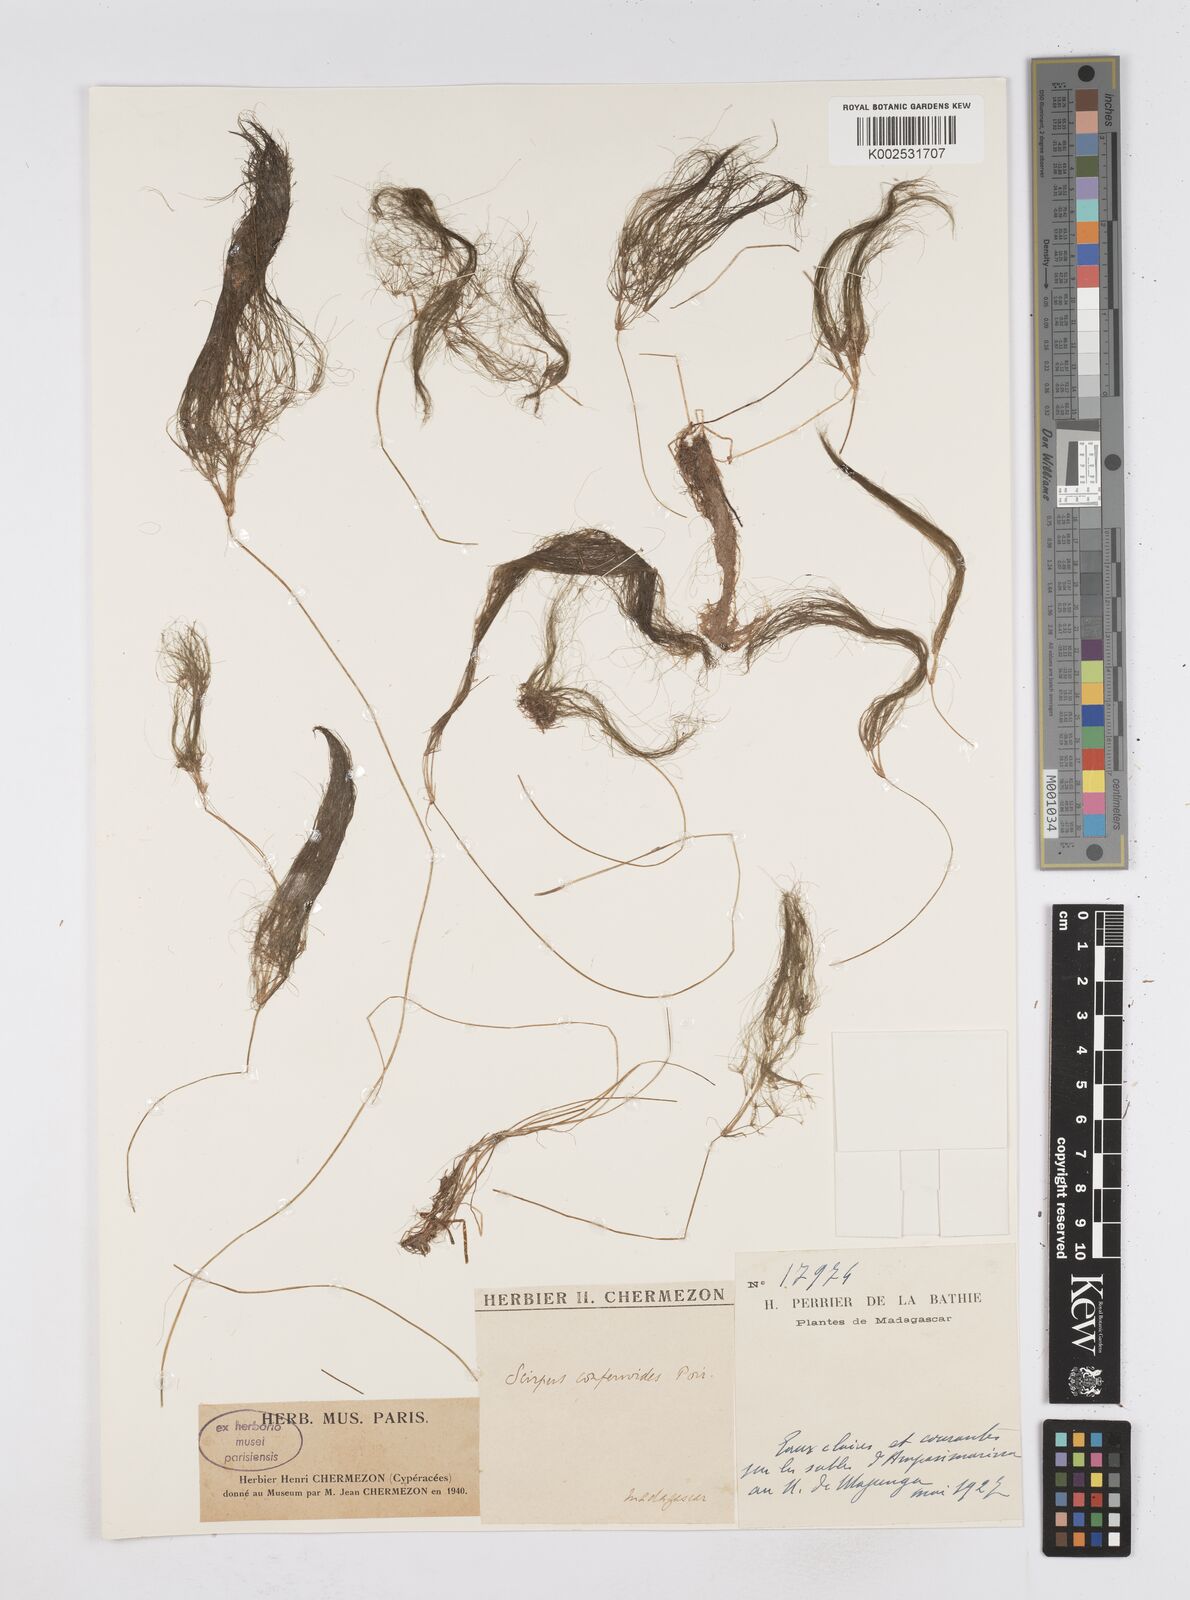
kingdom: Plantae
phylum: Tracheophyta
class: Liliopsida
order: Poales
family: Cyperaceae
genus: Eleocharis
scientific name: Eleocharis confervoides
